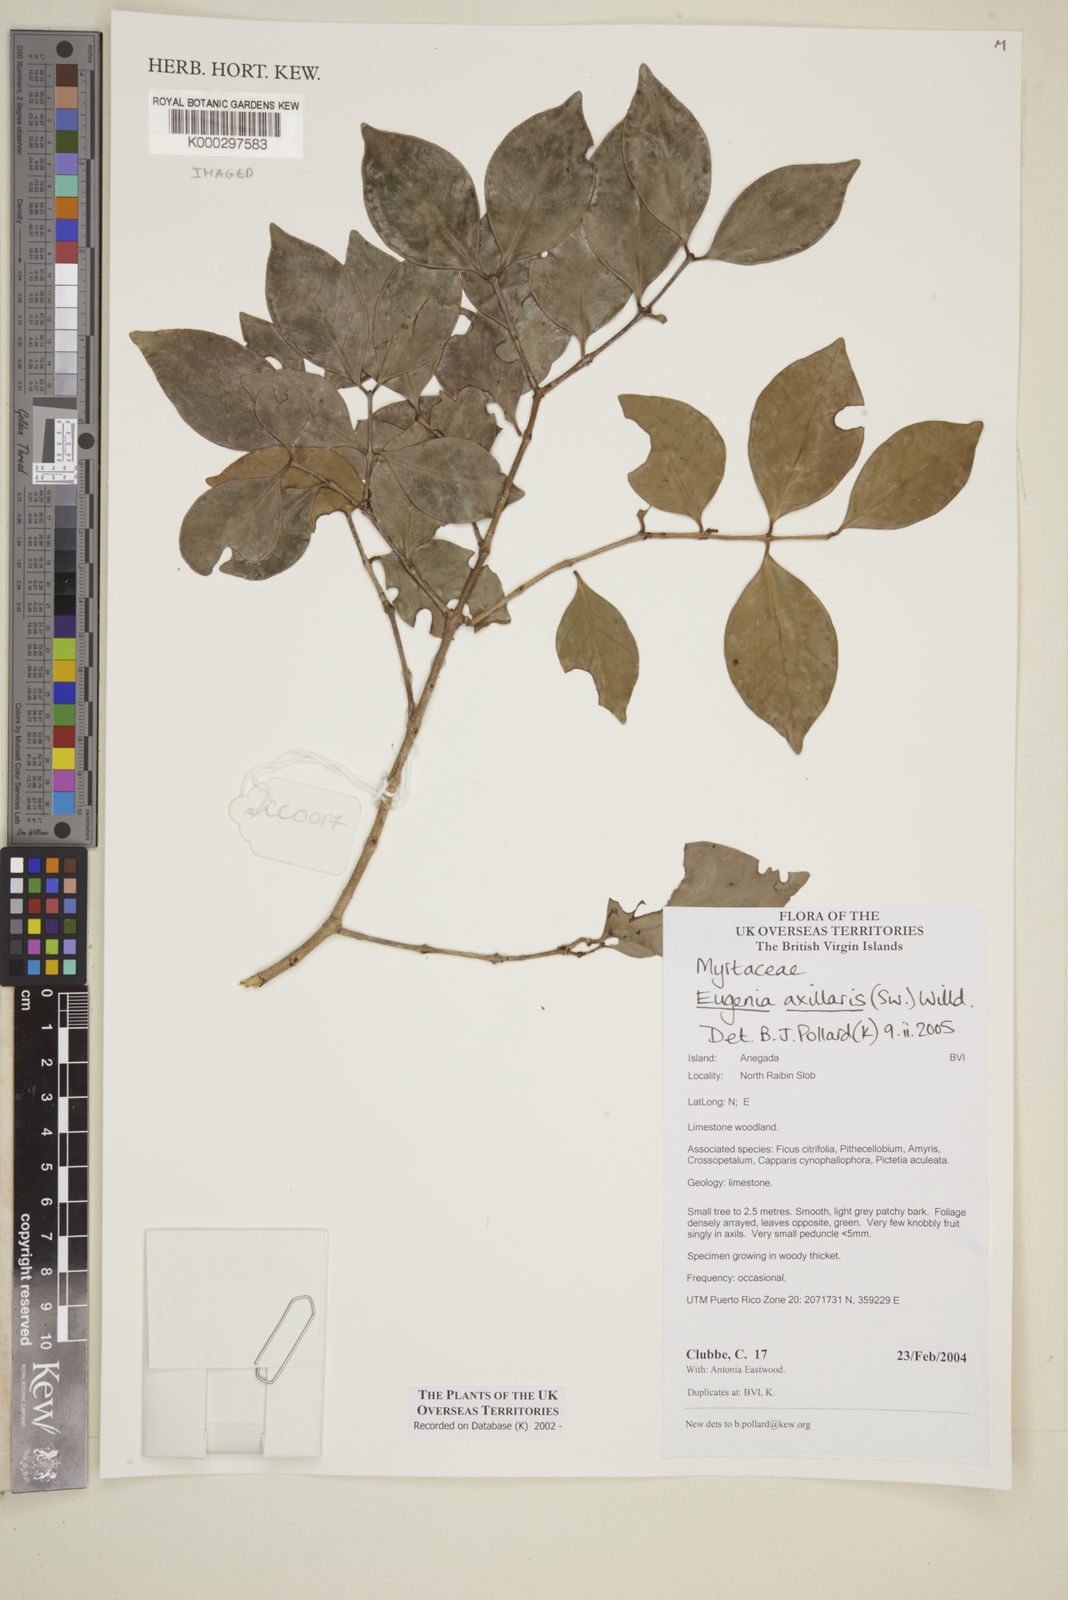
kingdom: Plantae
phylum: Tracheophyta
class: Magnoliopsida
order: Myrtales
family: Myrtaceae
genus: Eugenia
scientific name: Eugenia axillaris
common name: Choaky berry
